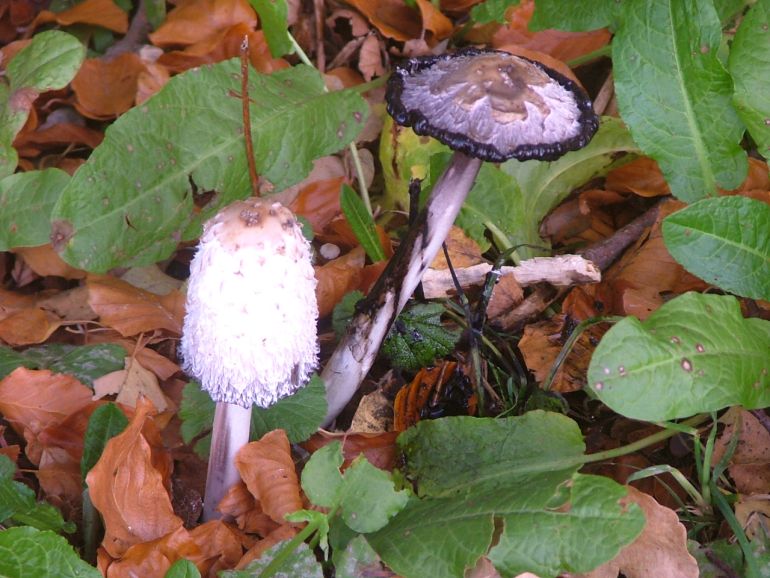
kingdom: Fungi
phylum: Basidiomycota
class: Agaricomycetes
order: Agaricales
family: Agaricaceae
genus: Coprinus
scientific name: Coprinus comatus
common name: stor parykhat
